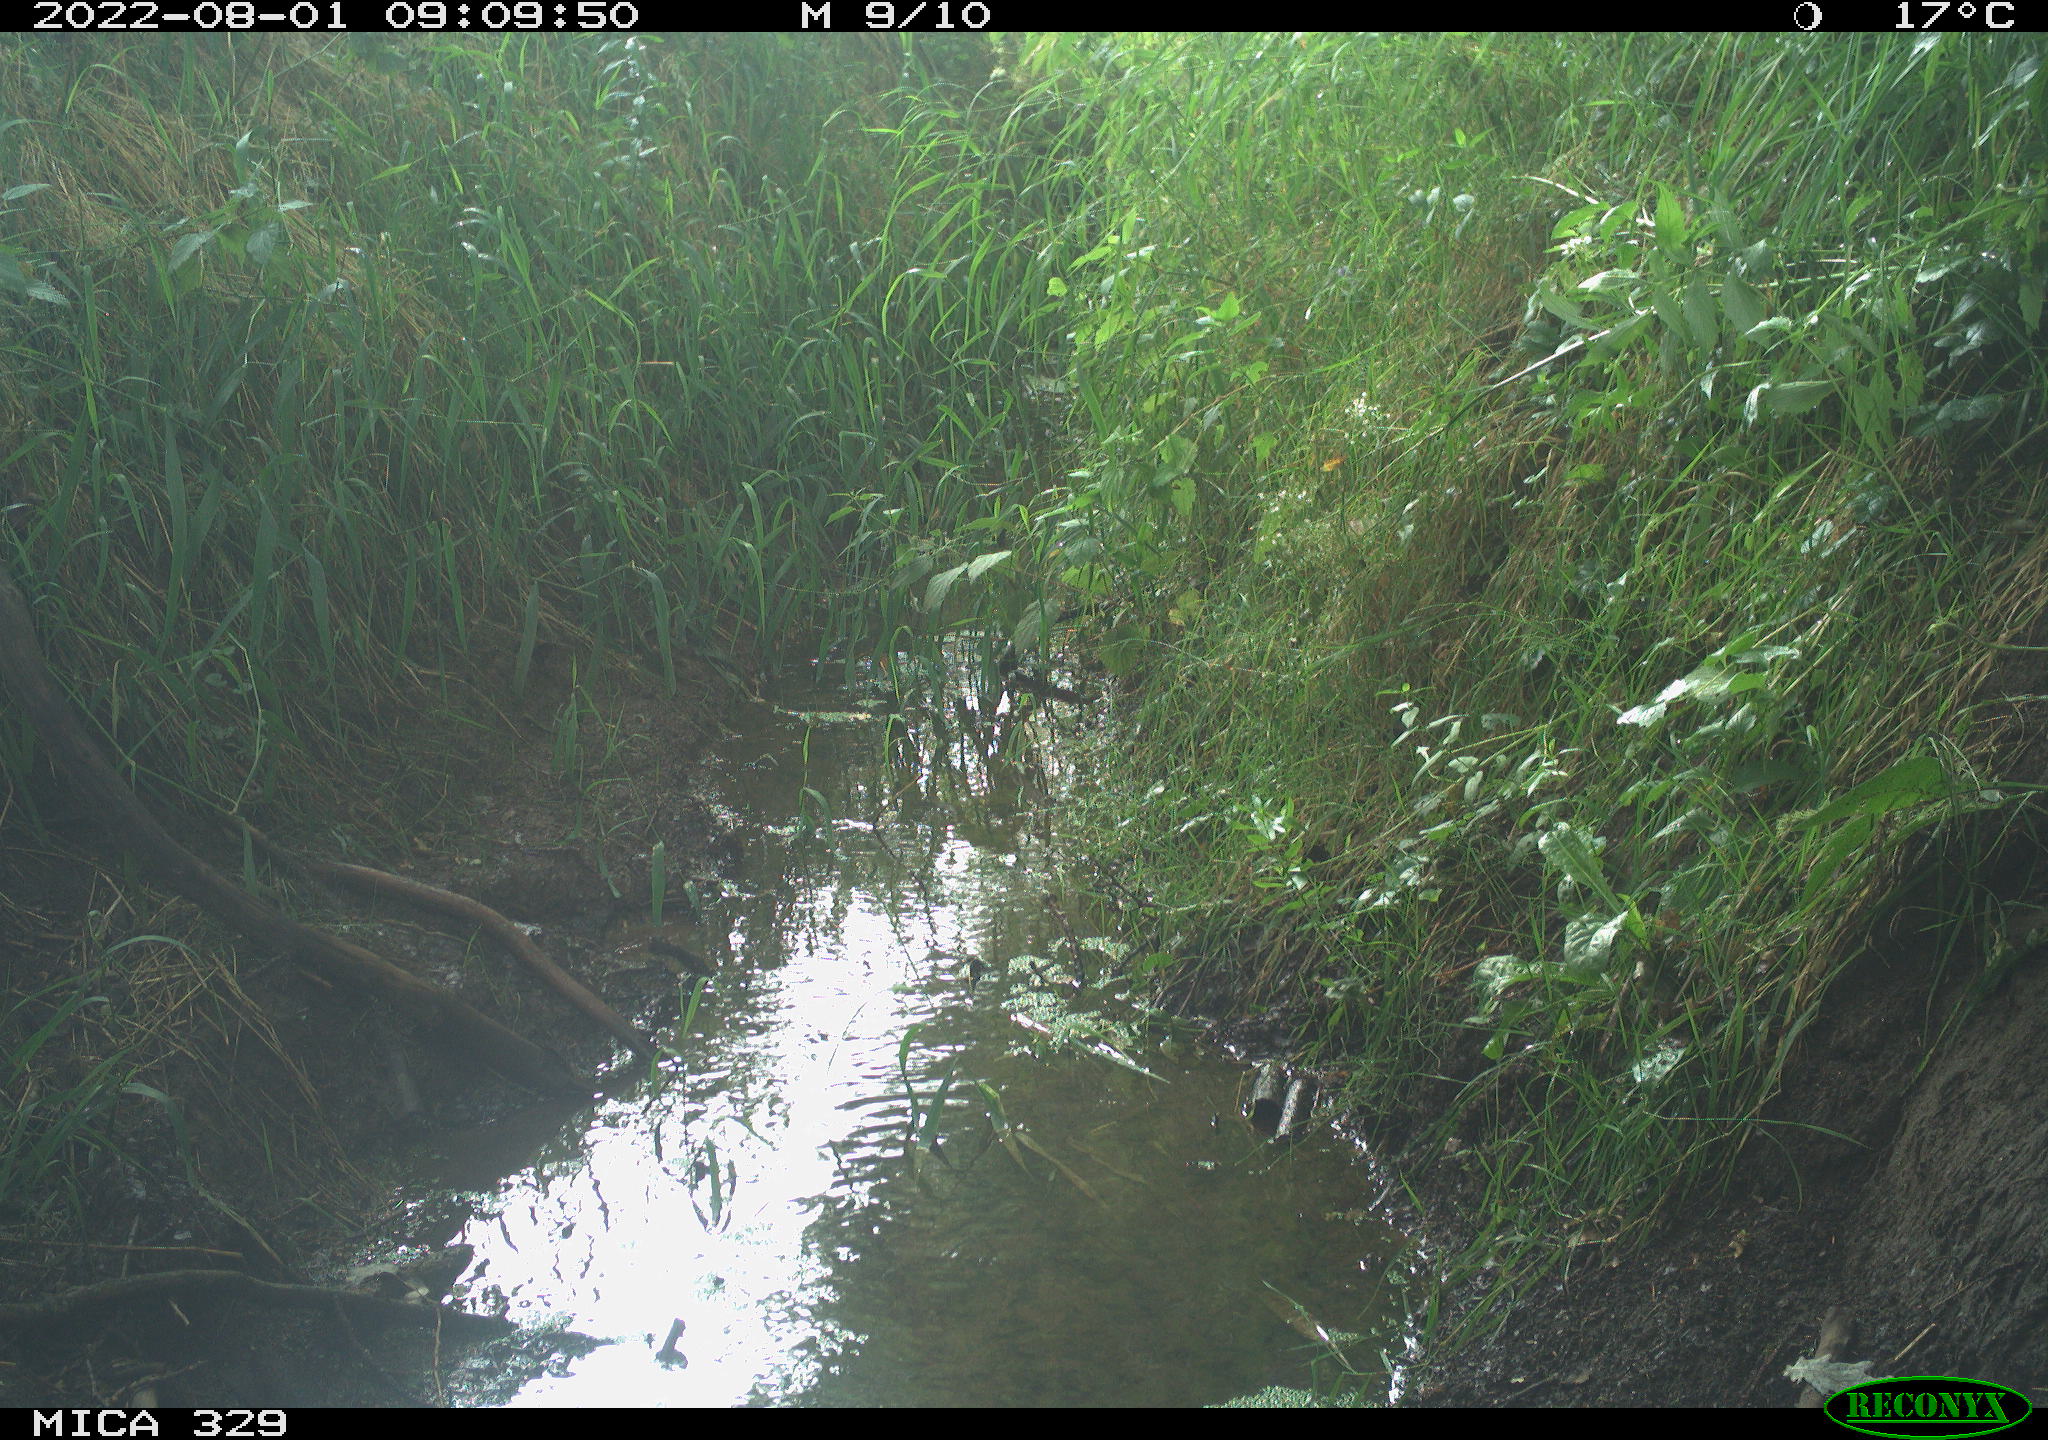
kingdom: Animalia
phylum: Chordata
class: Aves
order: Galliformes
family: Phasianidae
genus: Phasianus
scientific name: Phasianus colchicus
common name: Common pheasant
